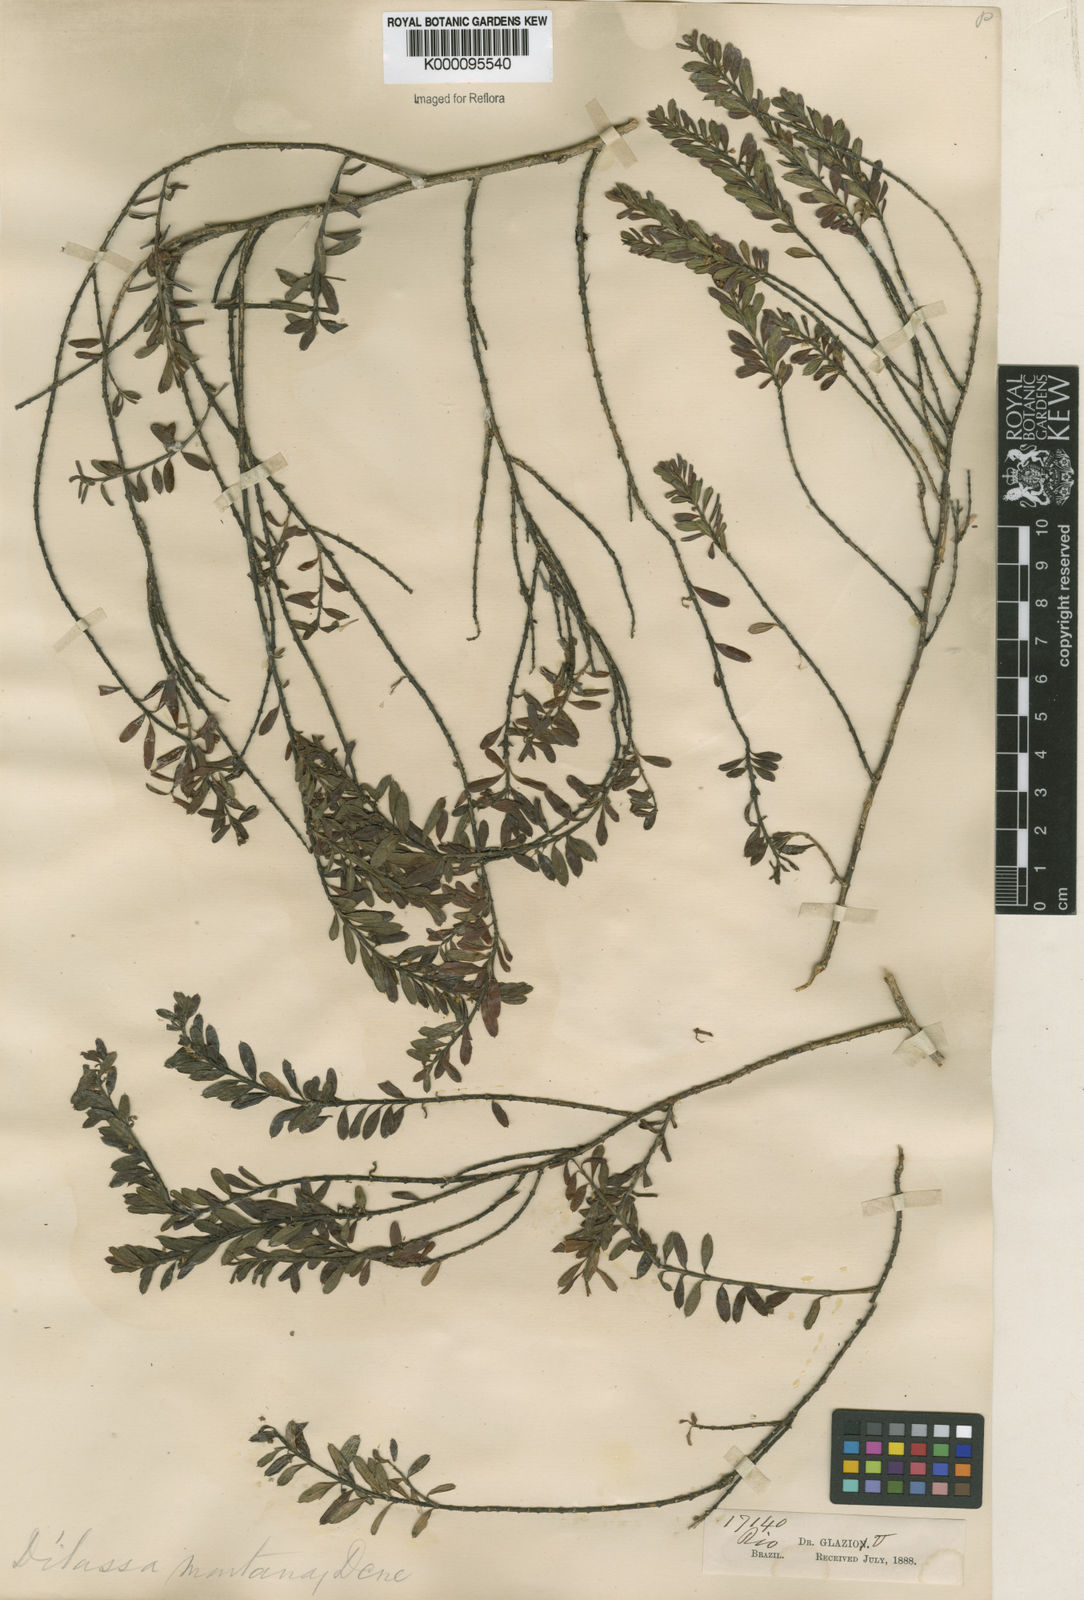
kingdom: Plantae
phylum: Tracheophyta
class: Magnoliopsida
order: Gentianales
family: Apocynaceae
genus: Ditassa
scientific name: Ditassa imbricata
